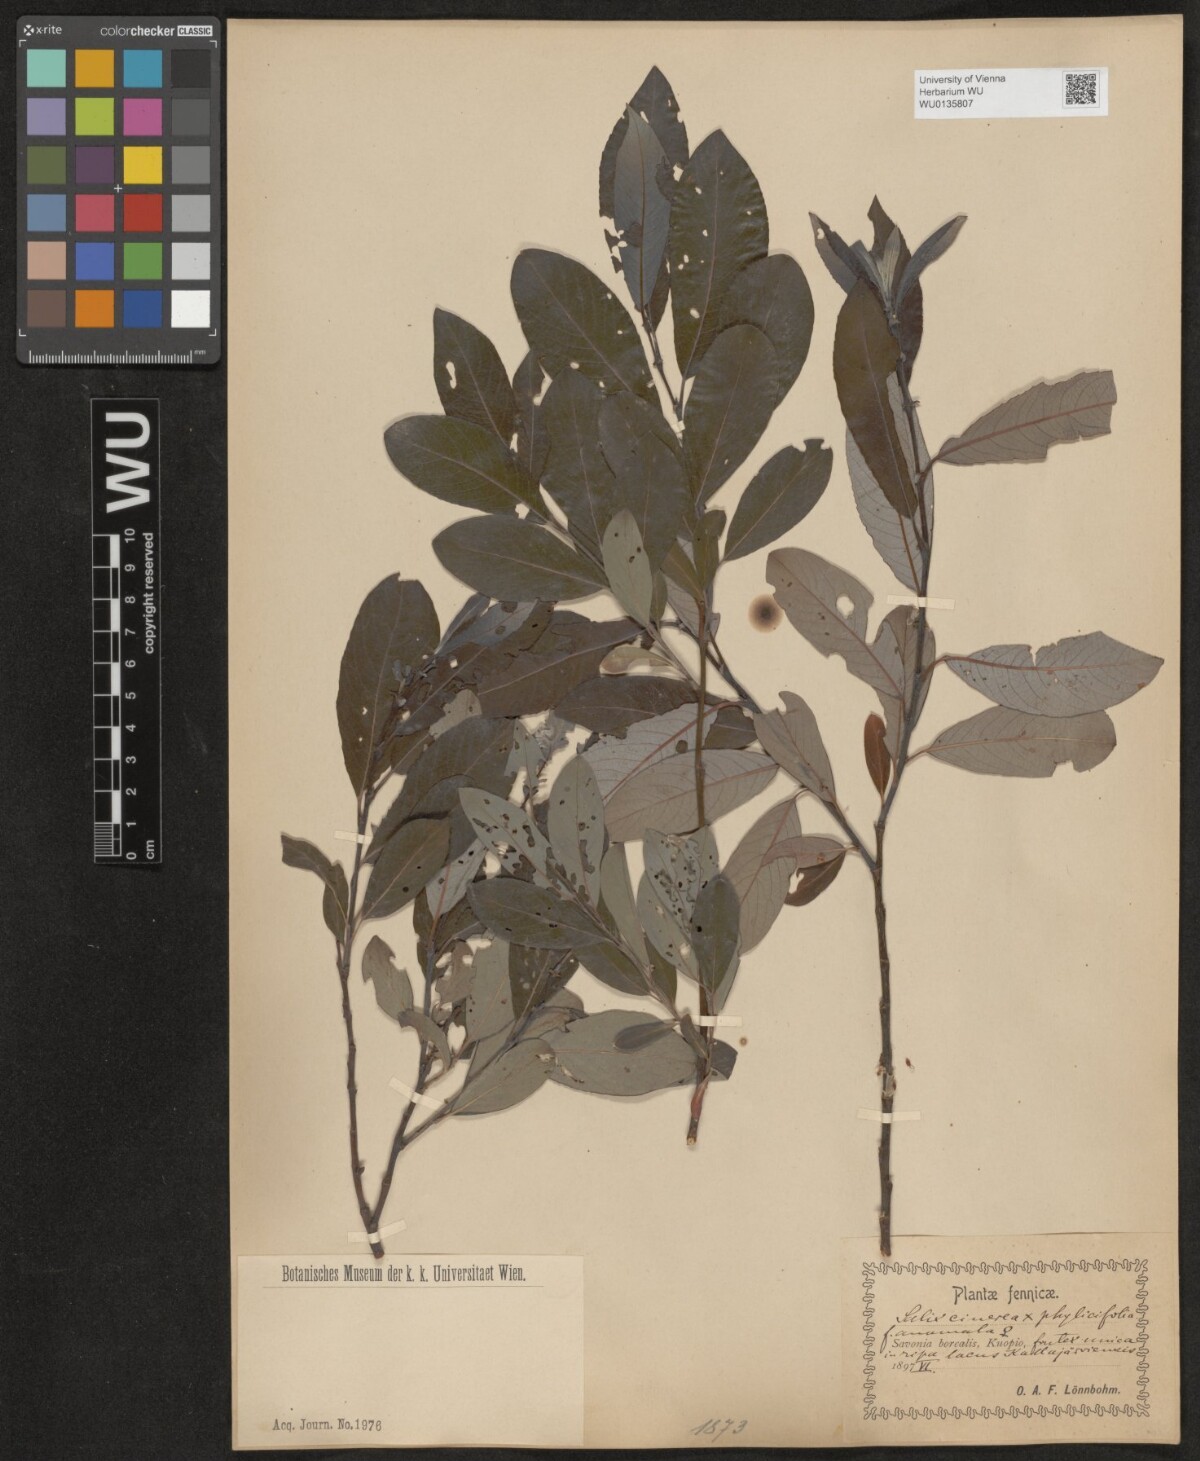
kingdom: Plantae
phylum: Tracheophyta
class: Magnoliopsida
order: Malpighiales
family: Salicaceae
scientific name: Salicaceae
